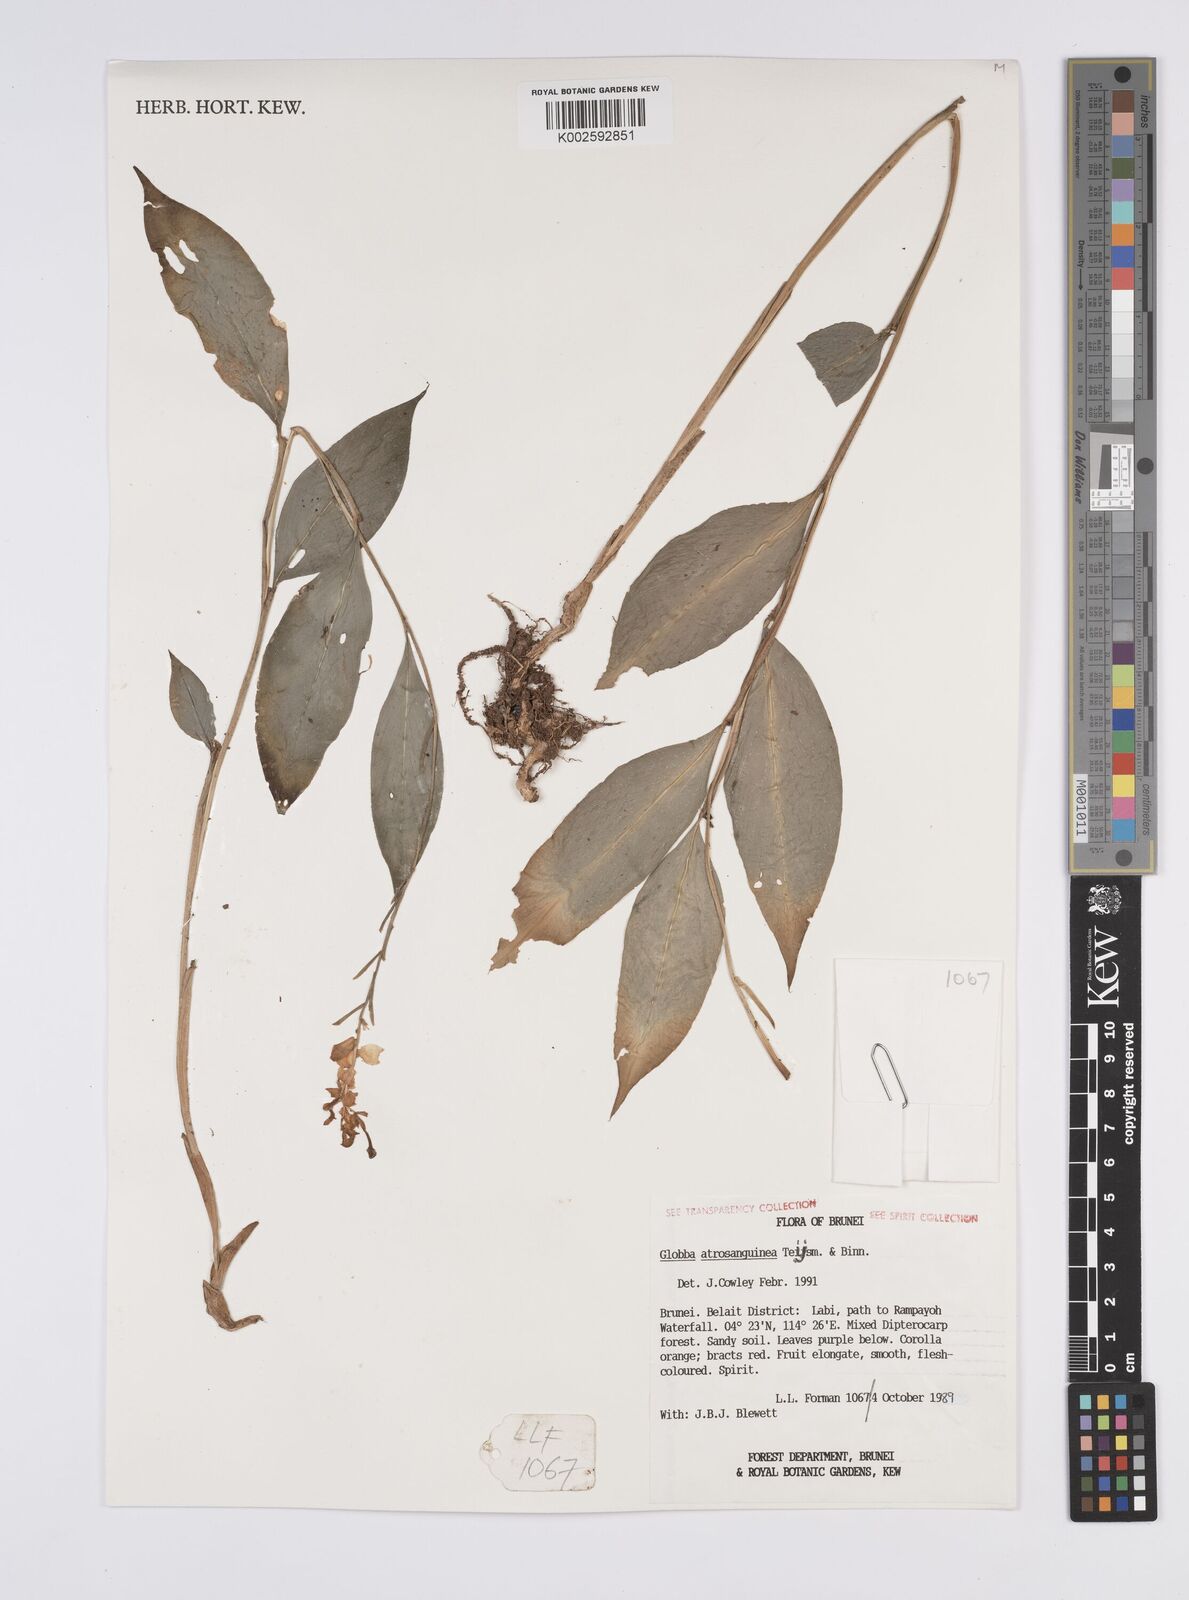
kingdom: Plantae
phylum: Tracheophyta
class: Liliopsida
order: Zingiberales
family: Zingiberaceae
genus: Globba
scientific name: Globba atrosanguinea
